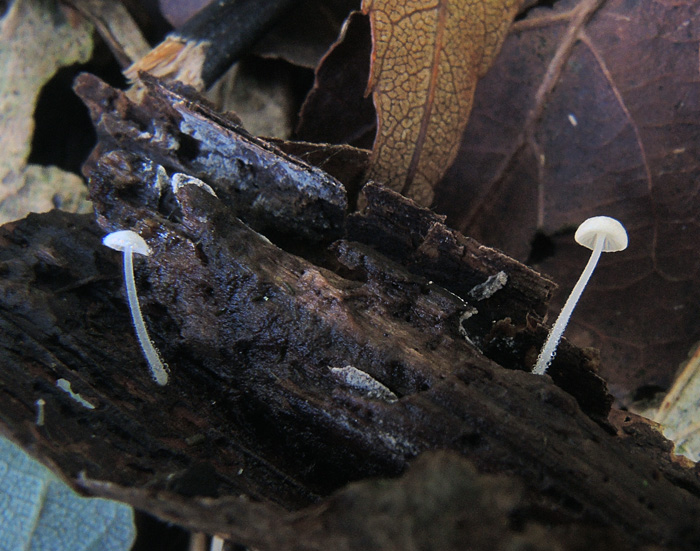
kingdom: Fungi
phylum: Basidiomycota
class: Agaricomycetes
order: Agaricales
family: Mycenaceae
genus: Hemimycena
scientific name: Hemimycena tortuosa
